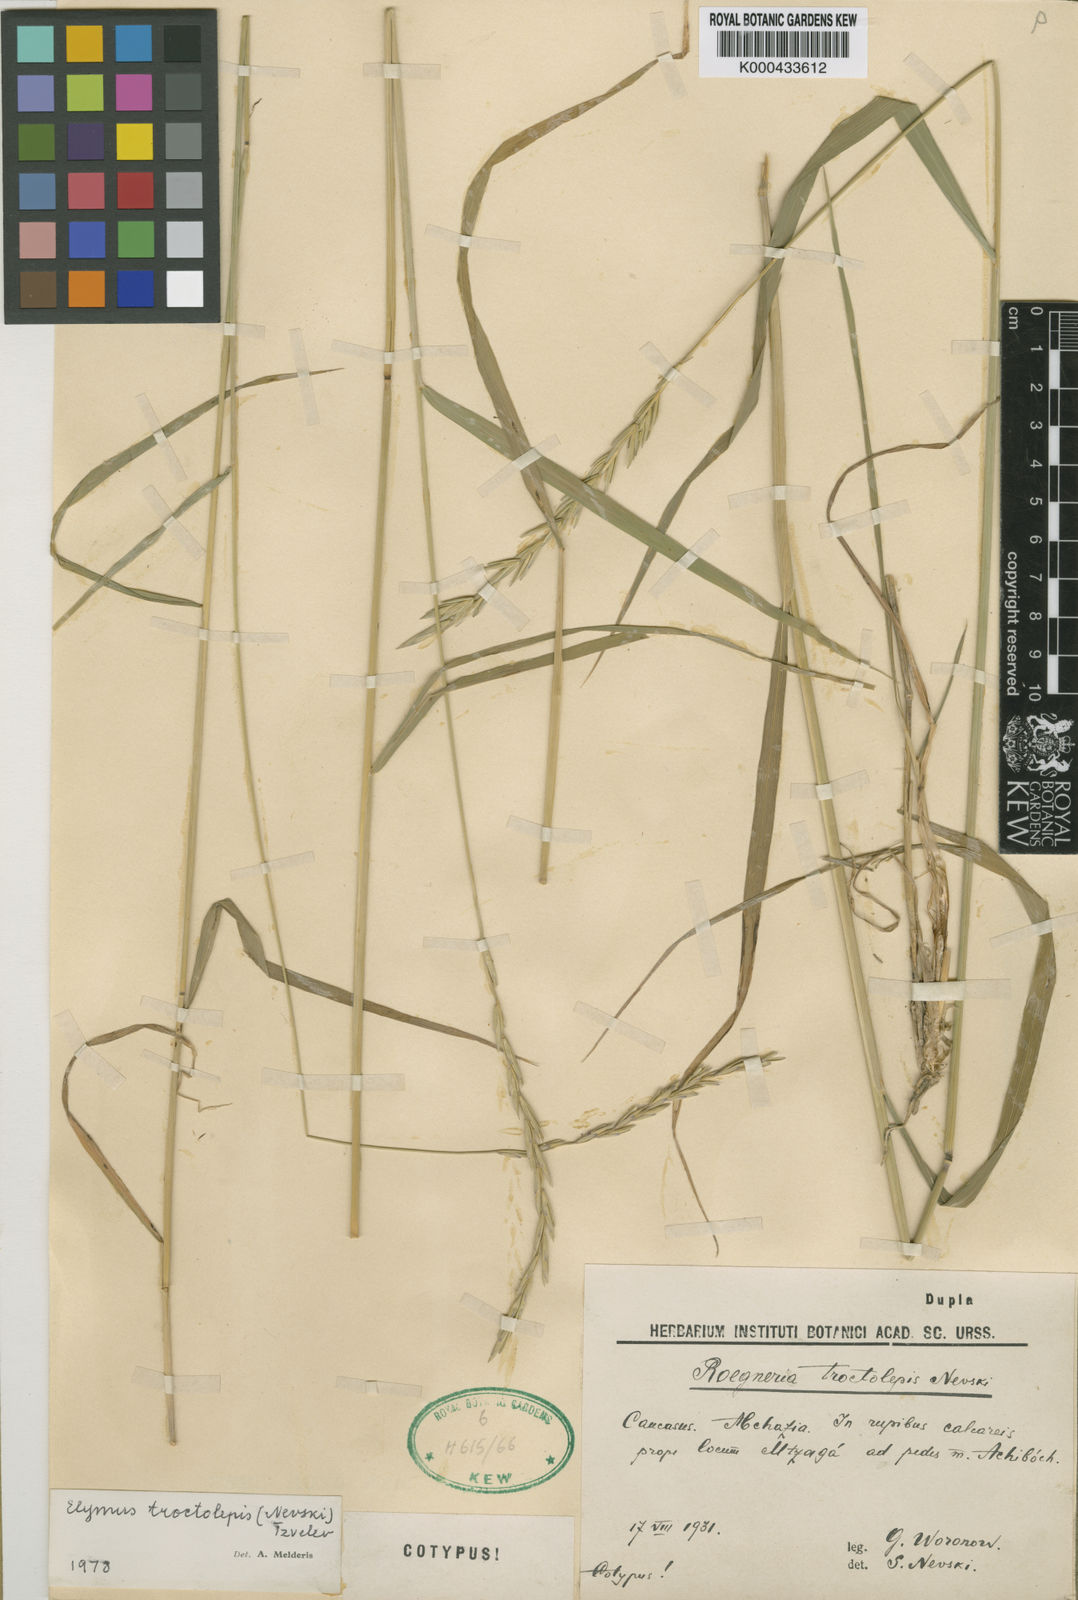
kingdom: Plantae
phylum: Tracheophyta
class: Liliopsida
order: Poales
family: Poaceae
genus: Elymus
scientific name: Elymus
